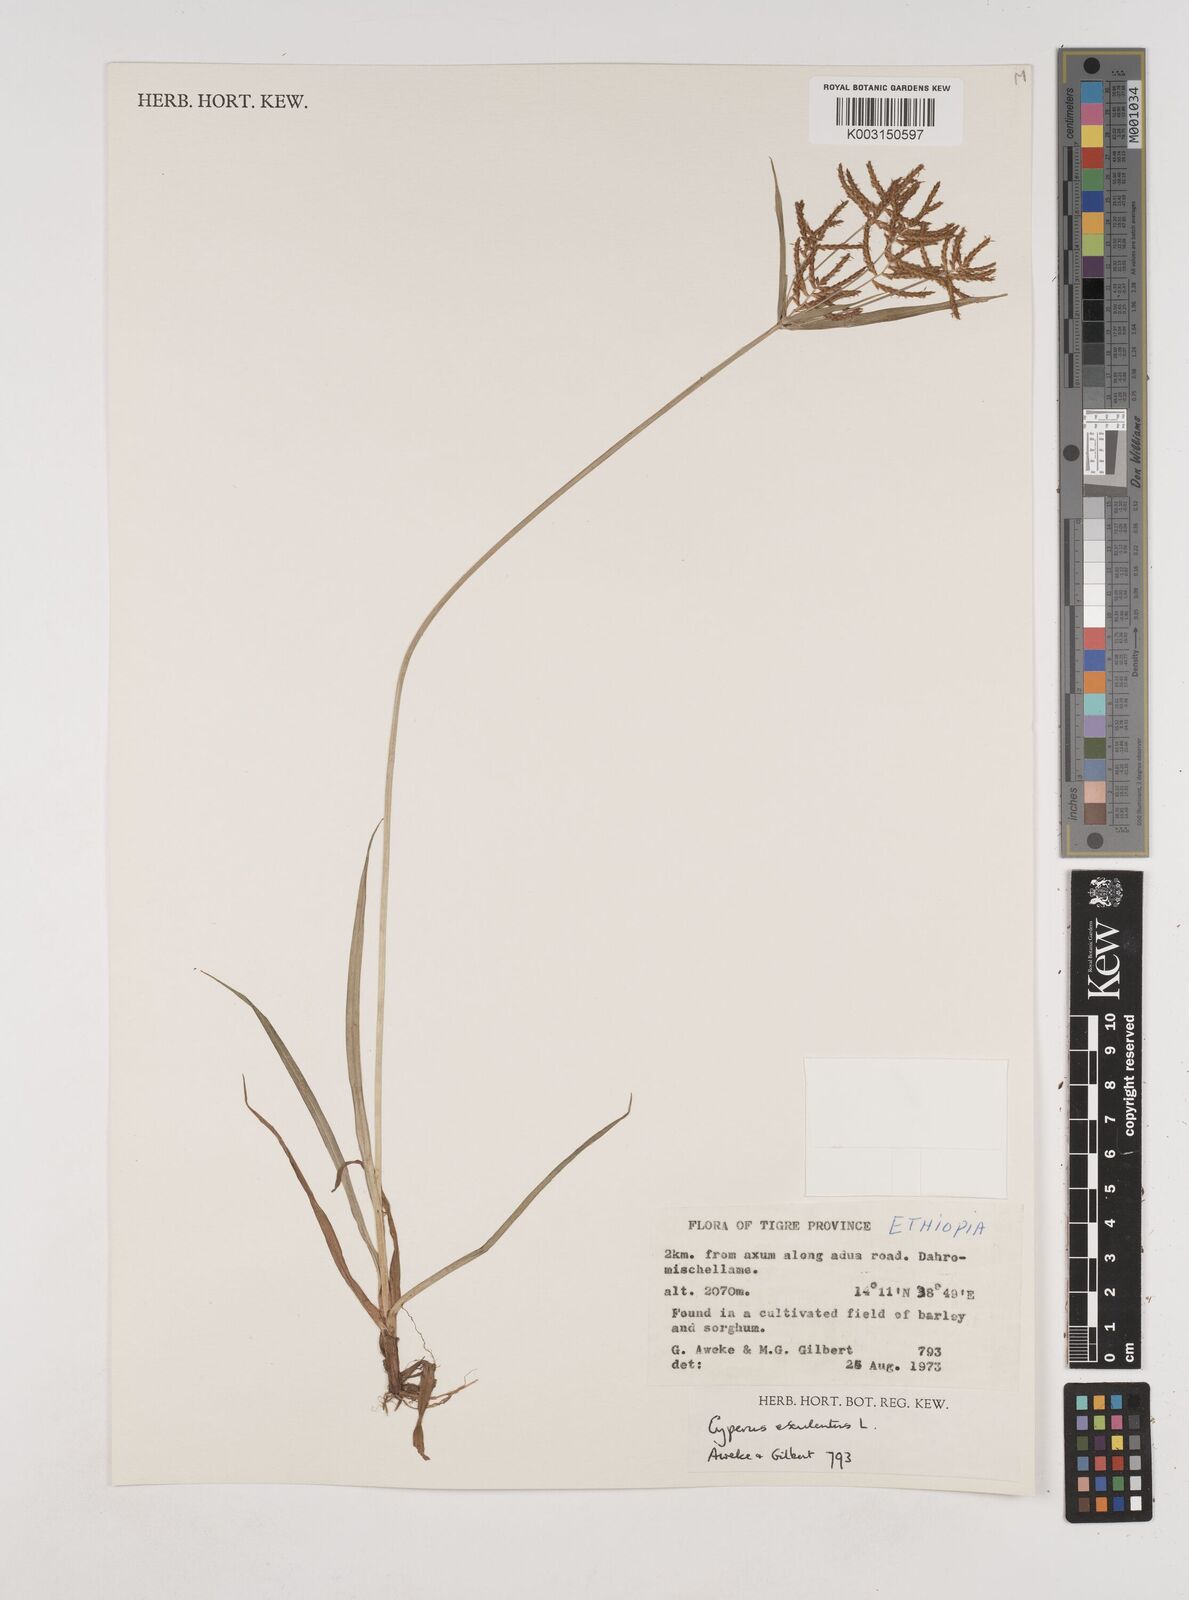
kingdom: Plantae
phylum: Tracheophyta
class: Liliopsida
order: Poales
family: Cyperaceae
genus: Cyperus
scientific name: Cyperus esculentus
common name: Yellow nutsedge
